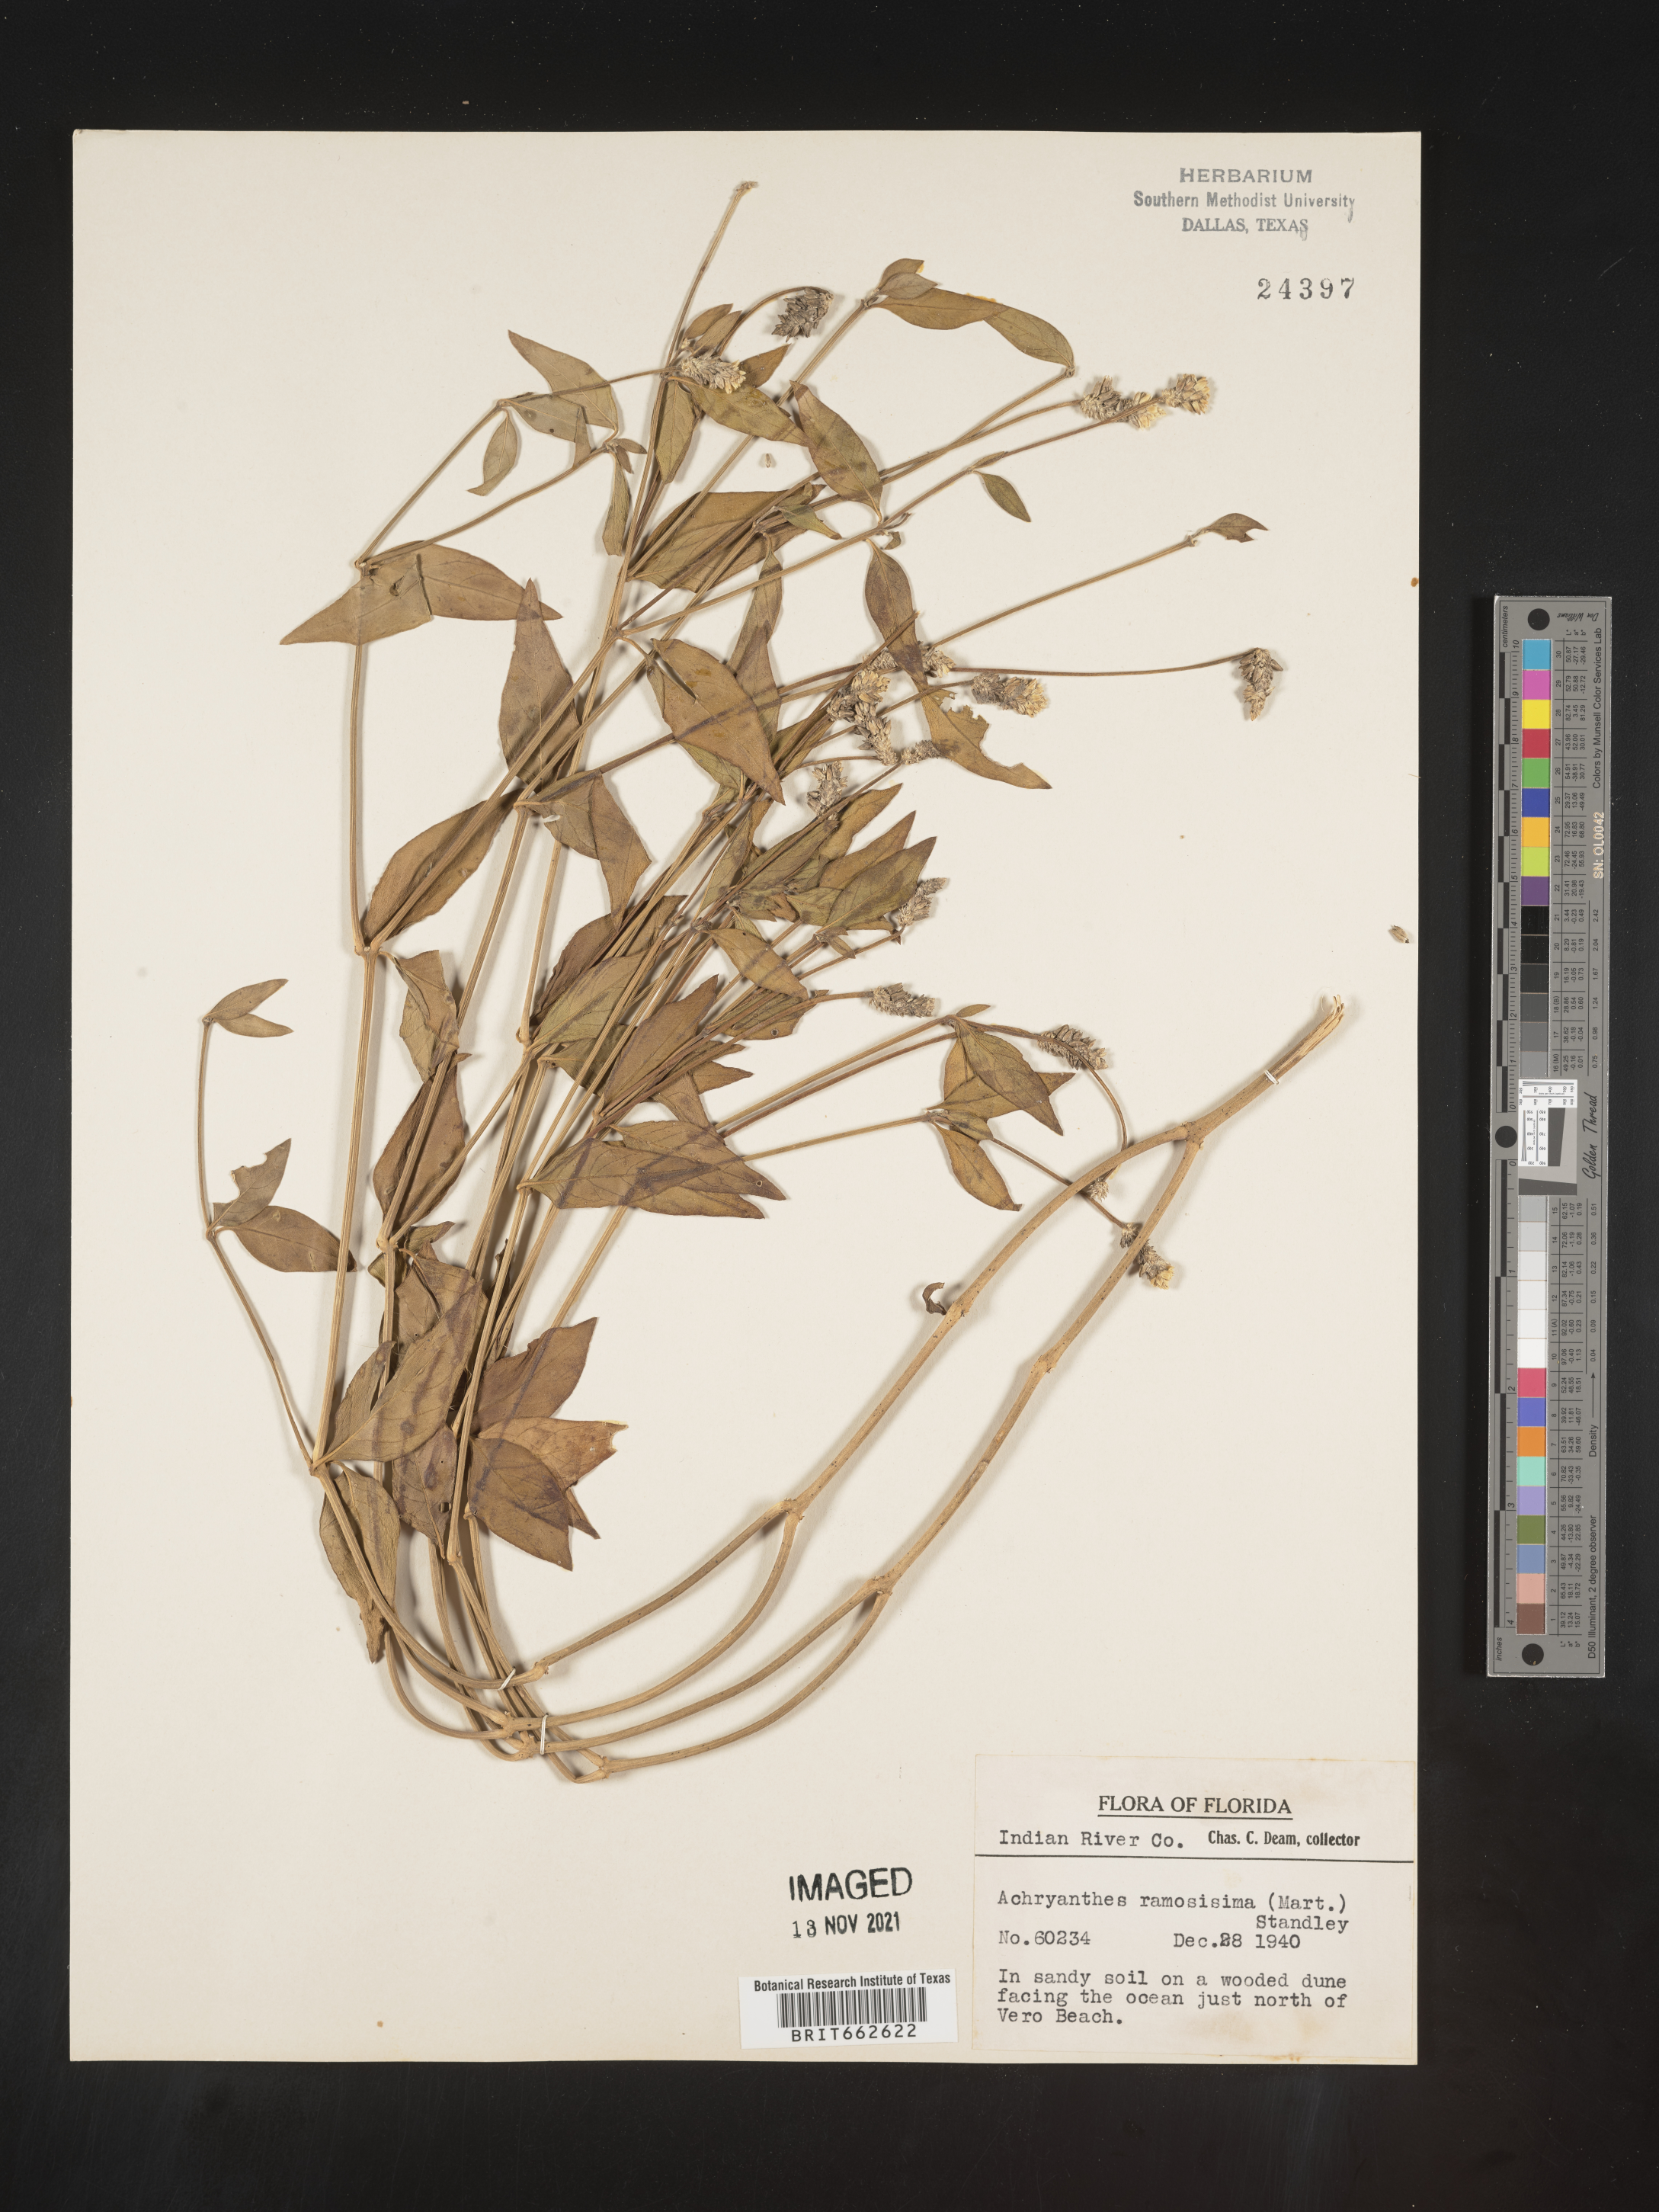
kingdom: Plantae
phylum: Tracheophyta
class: Magnoliopsida
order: Caryophyllales
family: Amaranthaceae
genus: Alternanthera
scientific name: Alternanthera ramosissima
